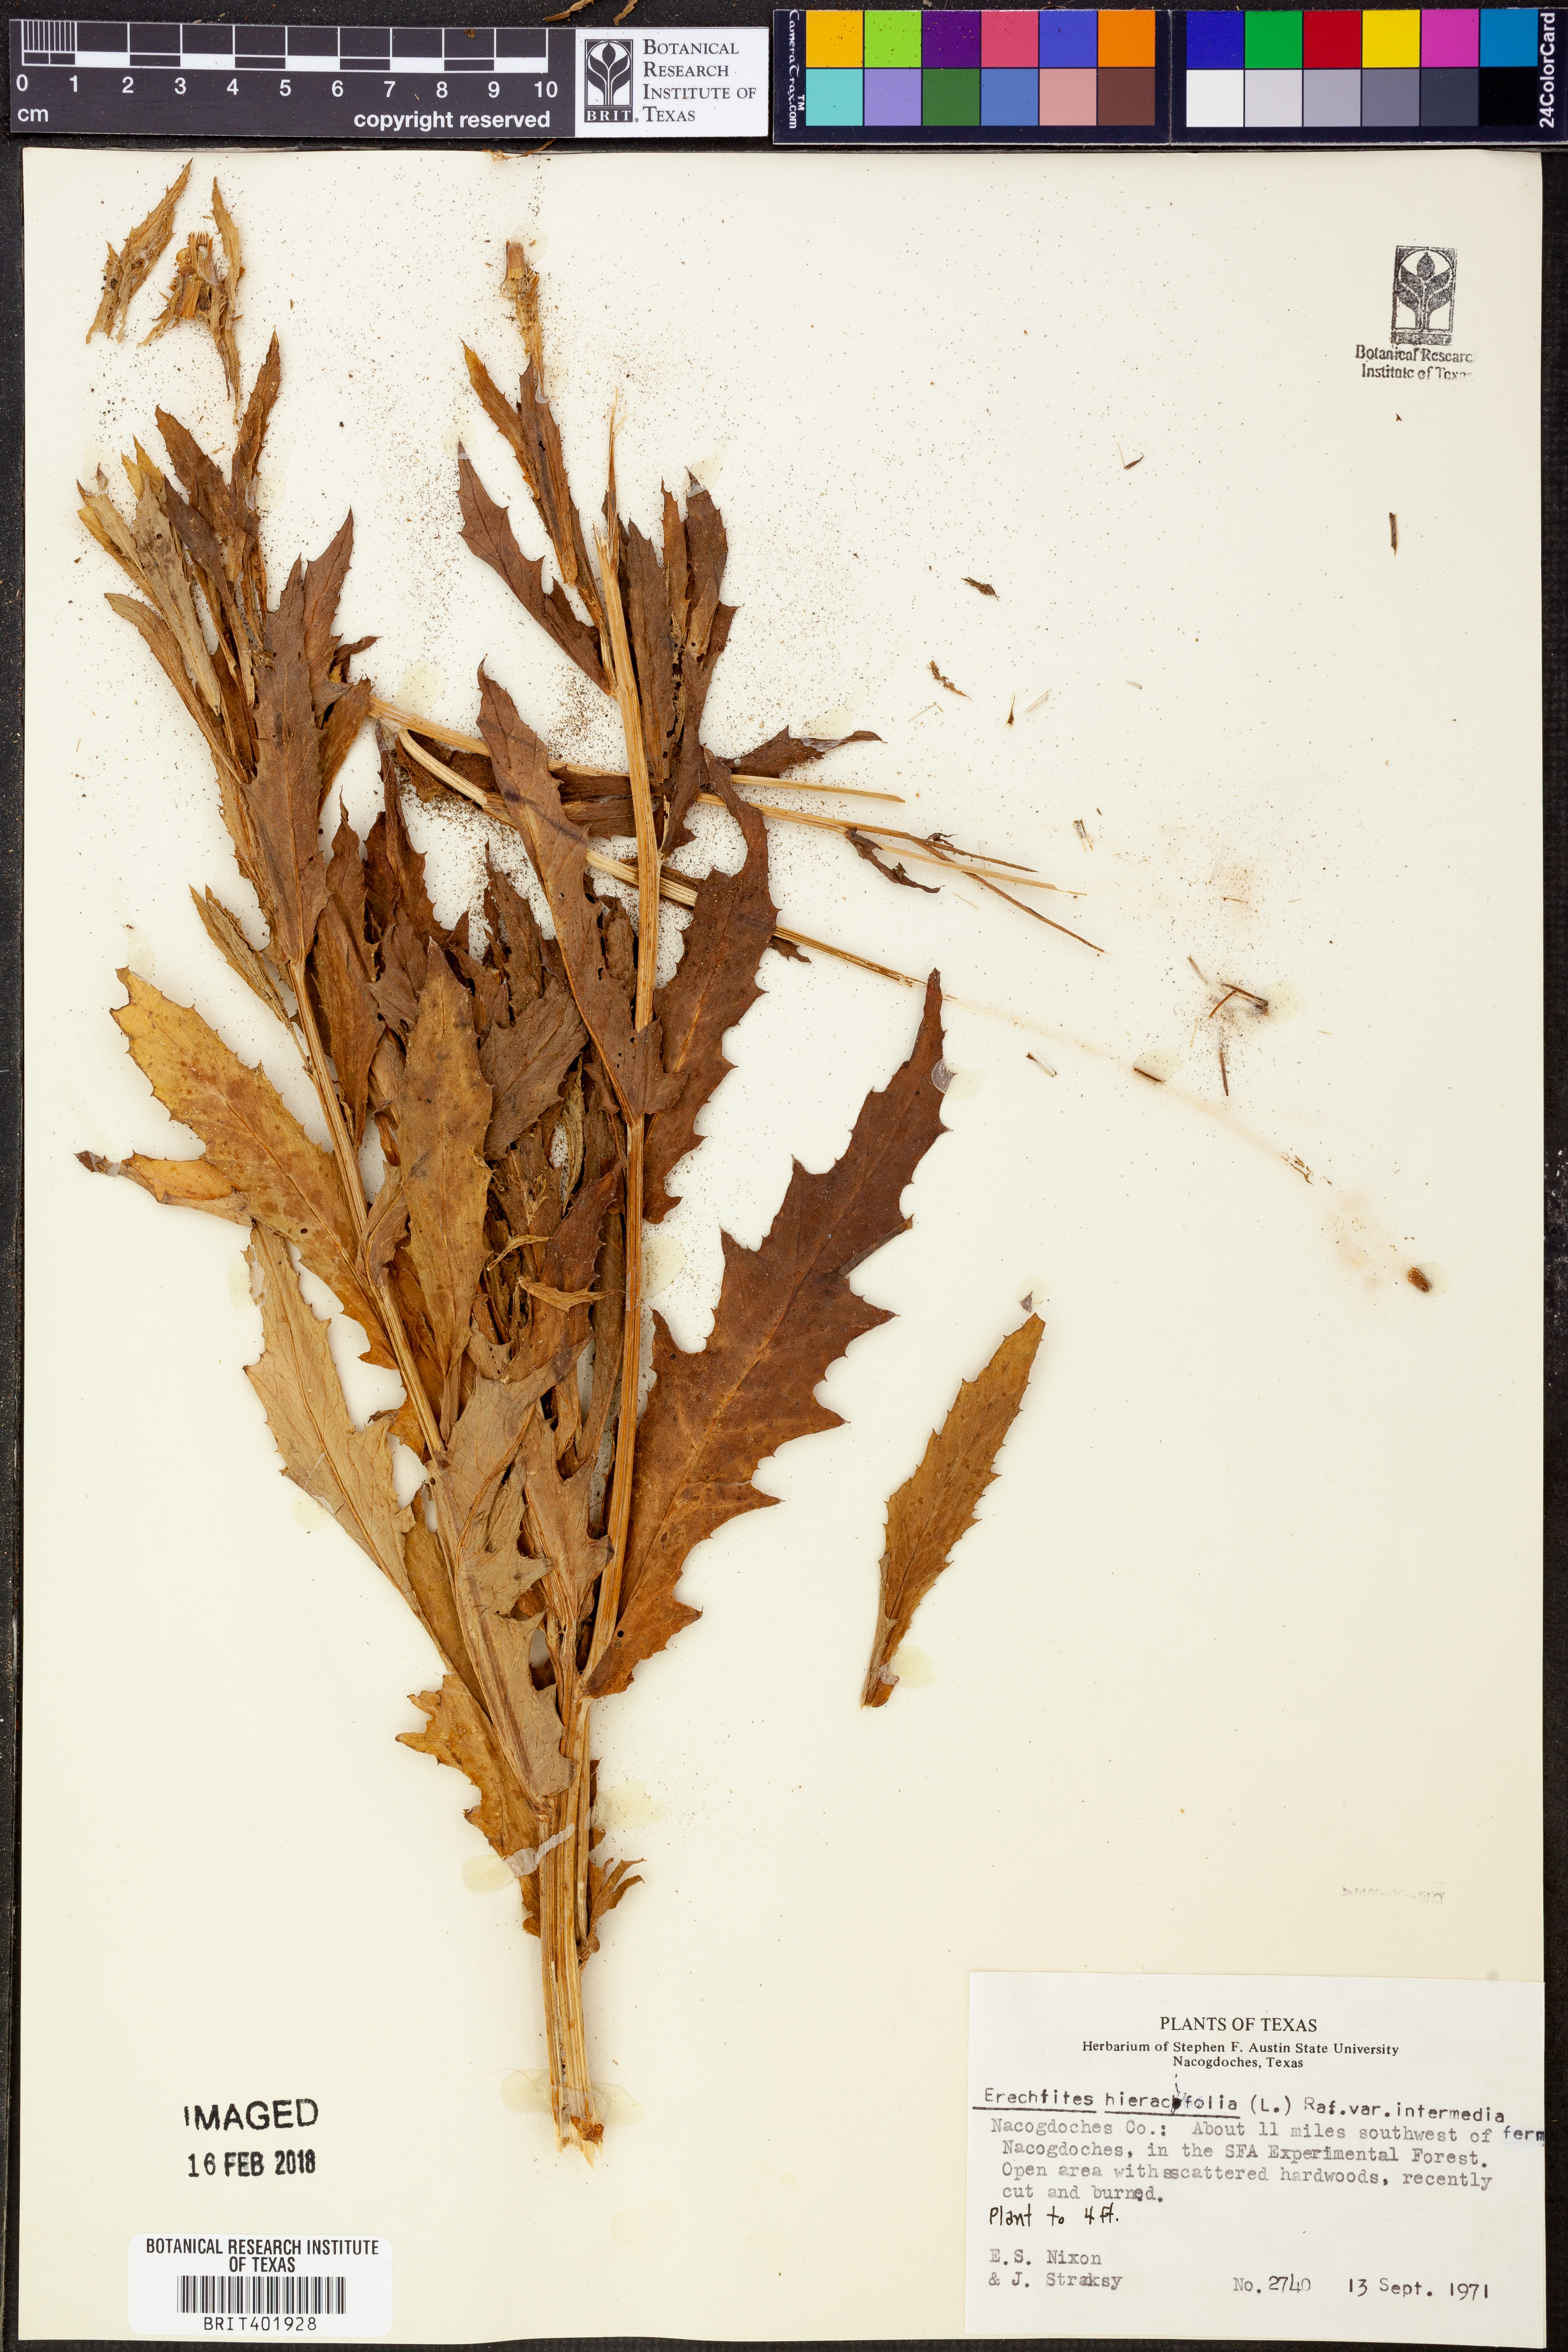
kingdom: Plantae
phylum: Tracheophyta
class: Magnoliopsida
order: Asterales
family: Asteraceae
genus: Erechtites
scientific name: Erechtites hieraciifolius
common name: American burnweed
